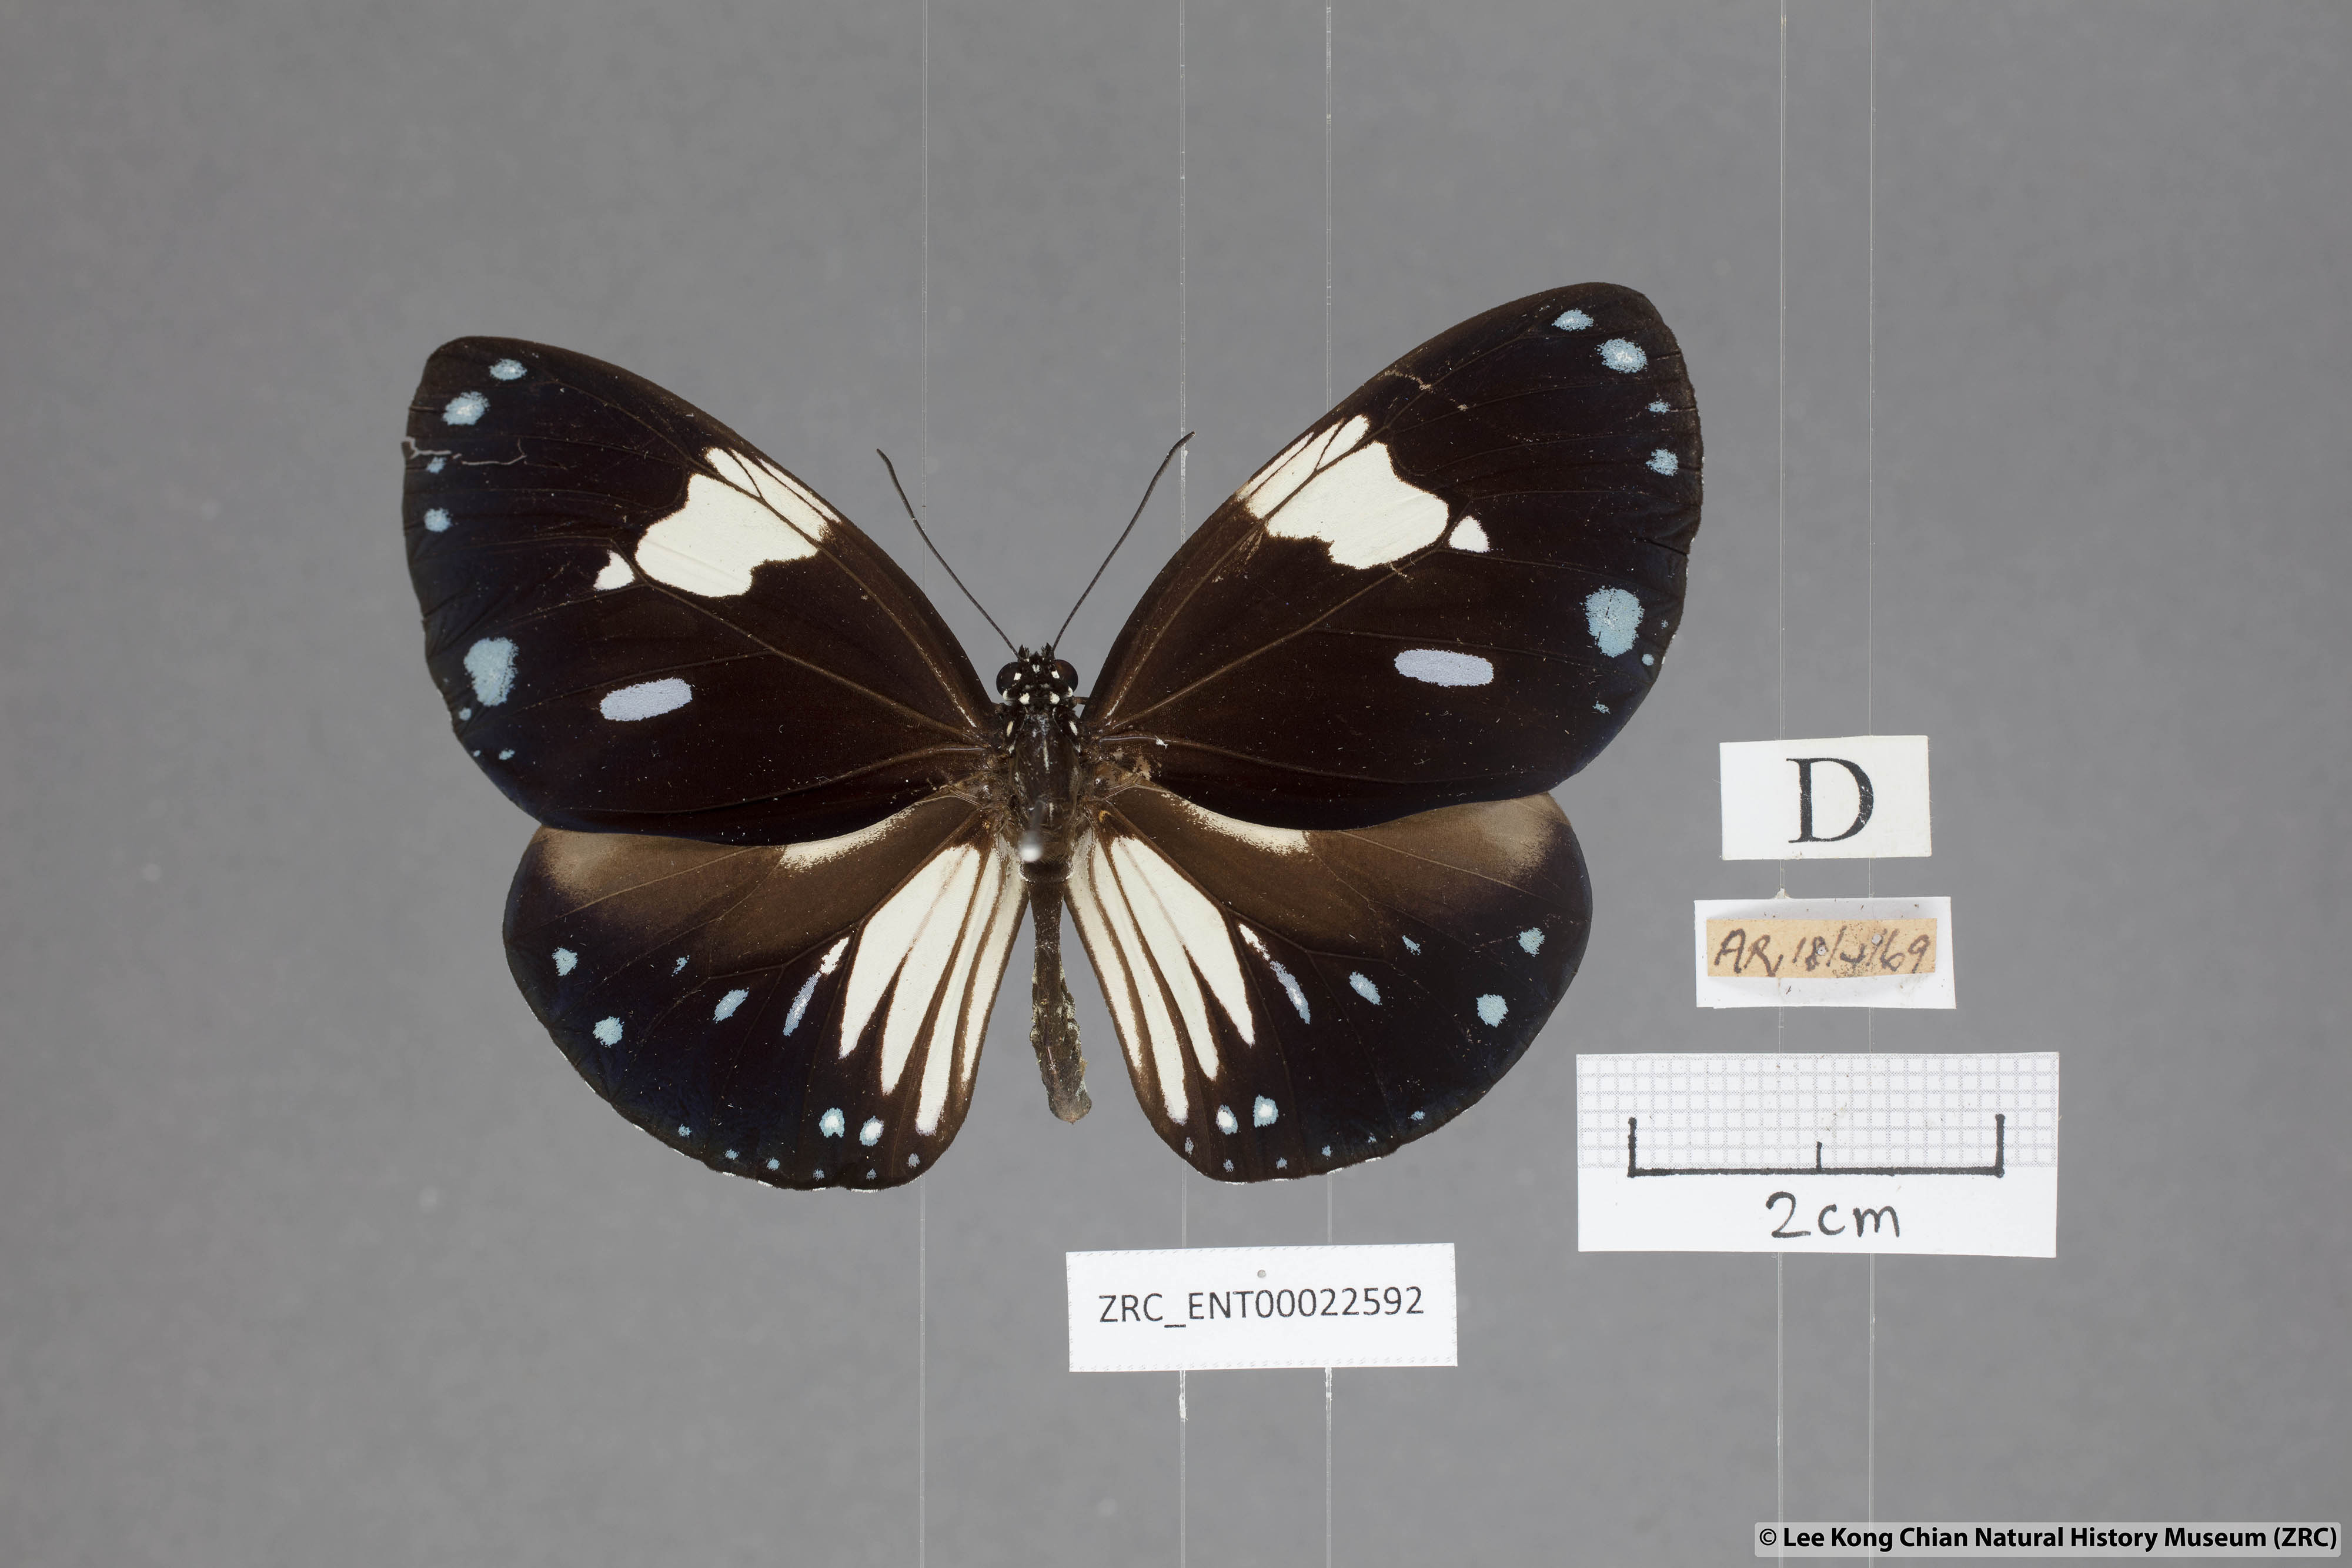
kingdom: Animalia
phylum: Arthropoda
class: Insecta
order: Lepidoptera
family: Nymphalidae
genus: Euploea
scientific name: Euploea diocletia
